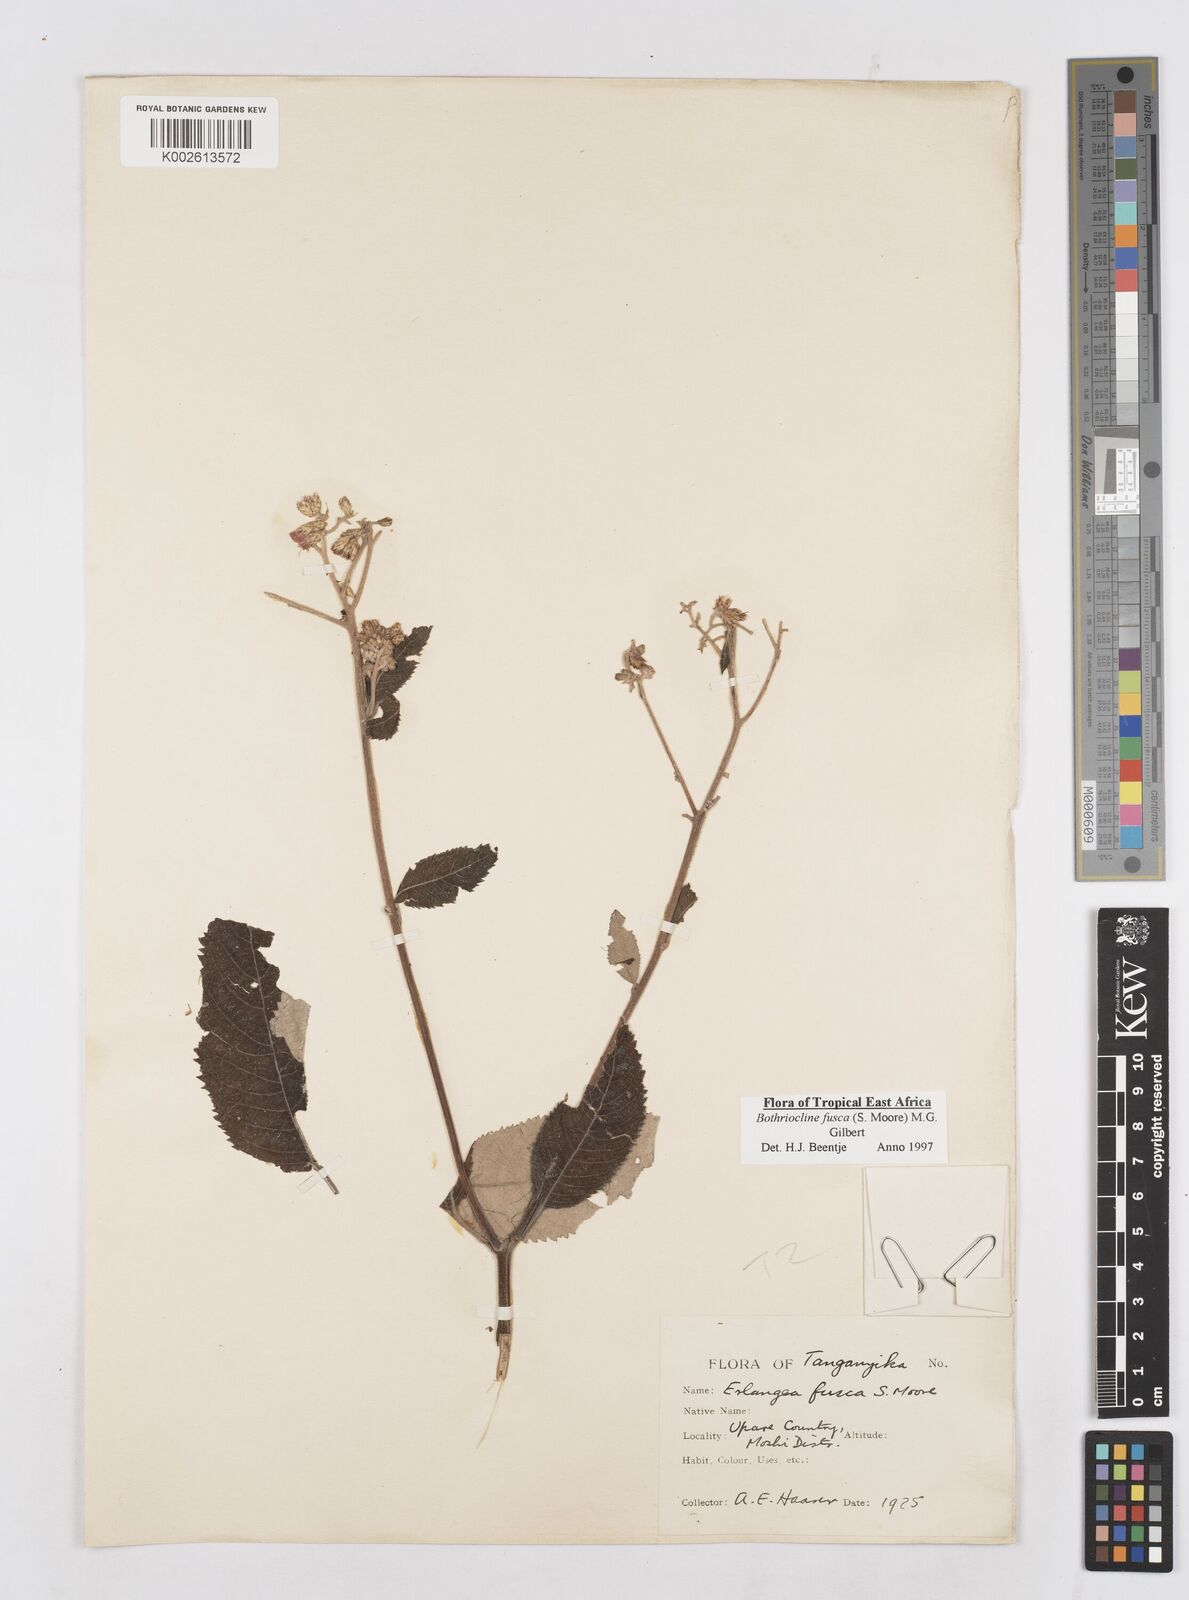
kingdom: Plantae
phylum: Tracheophyta
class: Magnoliopsida
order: Asterales
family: Asteraceae
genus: Bothriocline
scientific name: Bothriocline fusca
